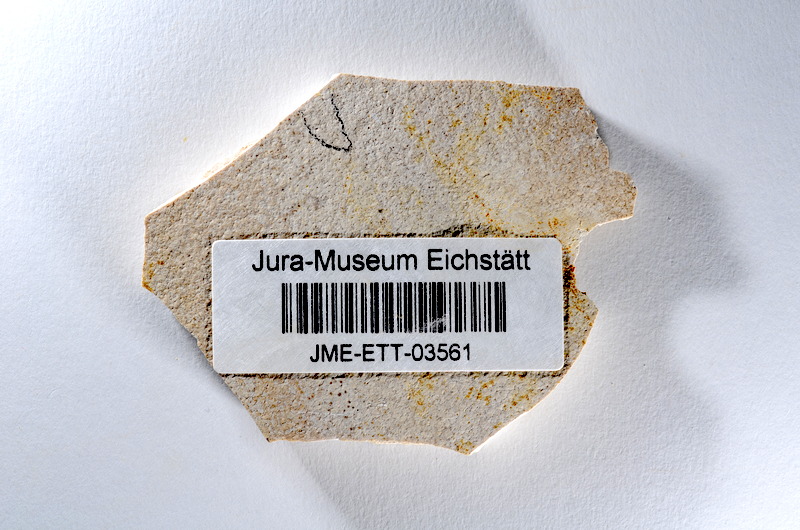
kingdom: Animalia
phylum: Chordata
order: Salmoniformes
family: Orthogonikleithridae
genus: Orthogonikleithrus
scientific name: Orthogonikleithrus hoelli
